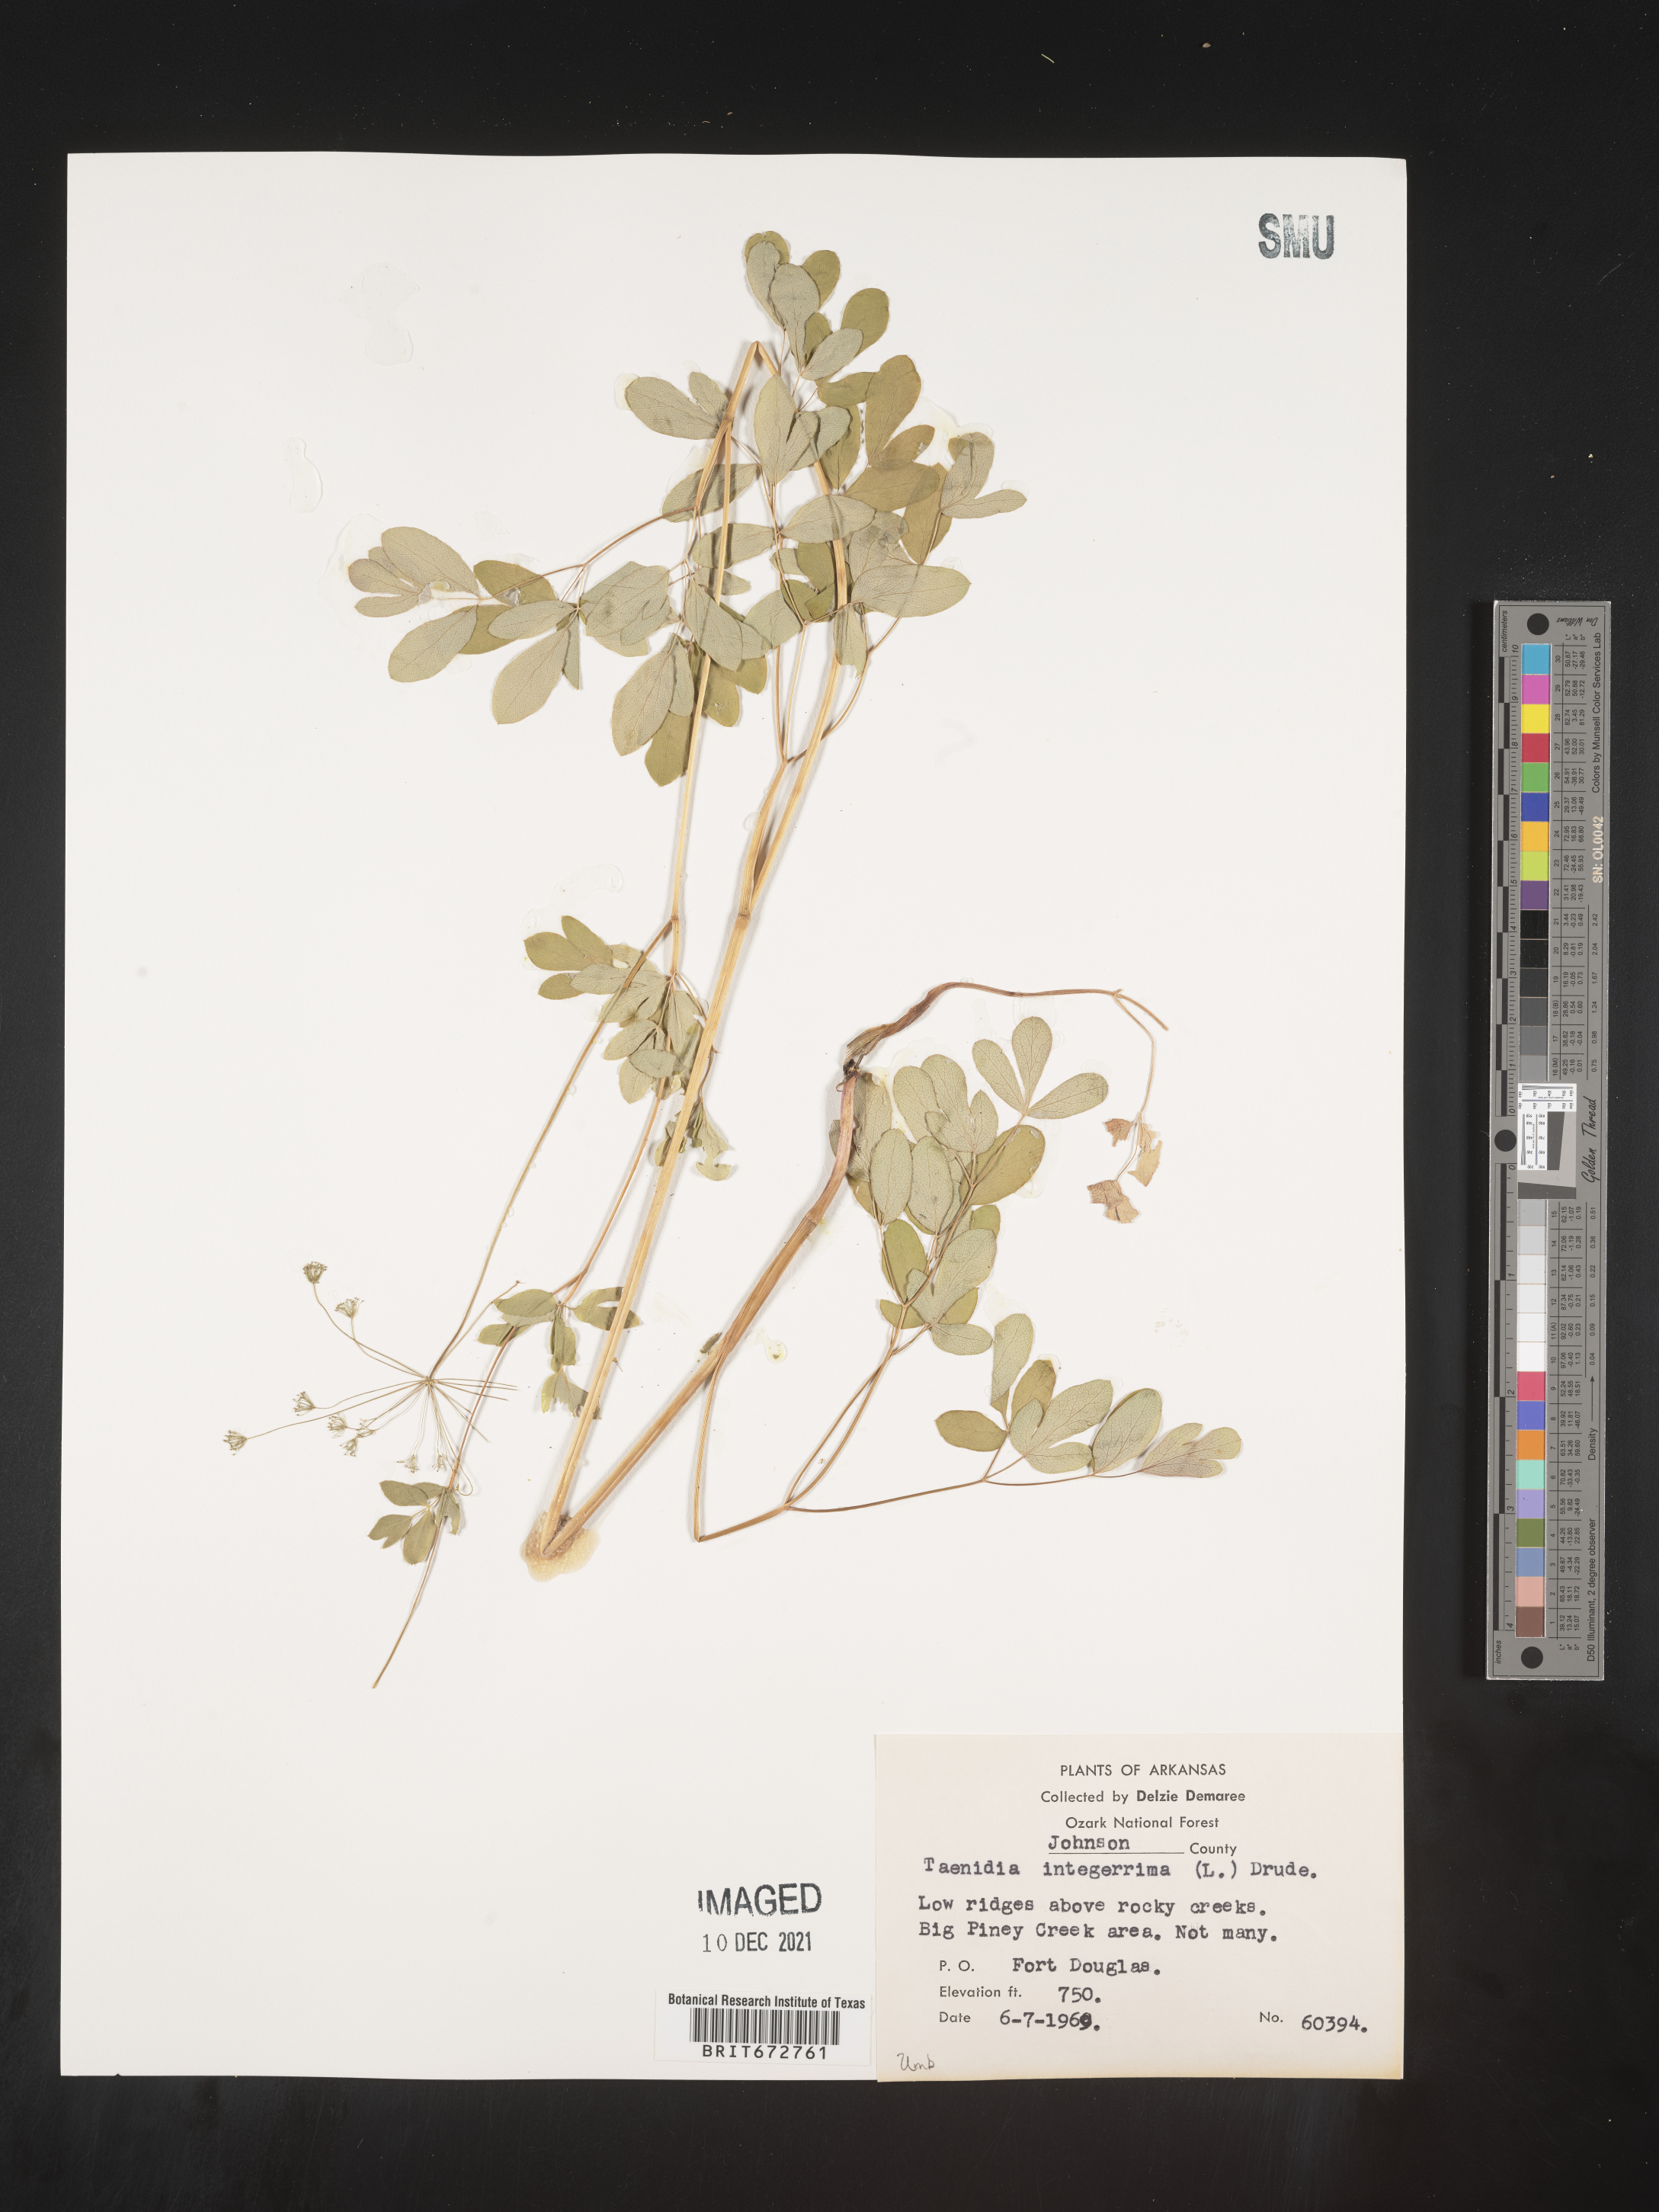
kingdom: Plantae
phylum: Tracheophyta
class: Magnoliopsida
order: Apiales
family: Apiaceae
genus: Taenidia
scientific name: Taenidia integerrima
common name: Golden alexander
